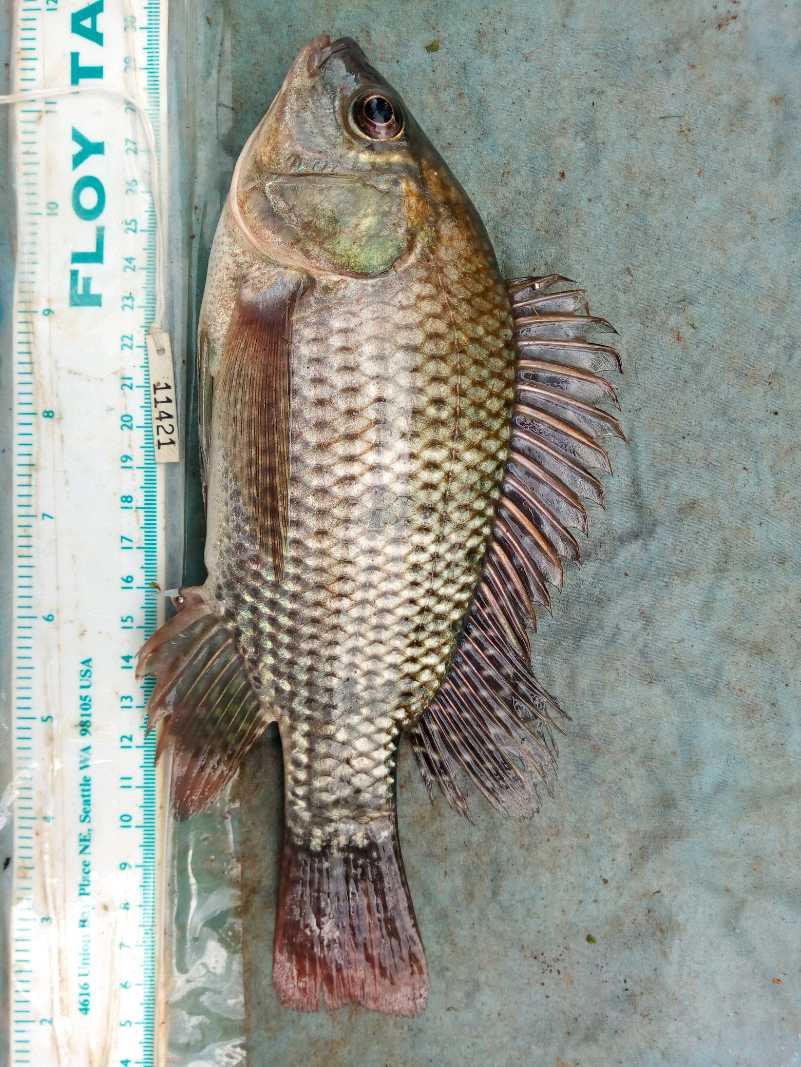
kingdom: Animalia
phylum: Chordata
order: Perciformes
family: Cichlidae
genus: Oreochromis
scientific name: Oreochromis niloticus
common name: Nile tilapia
